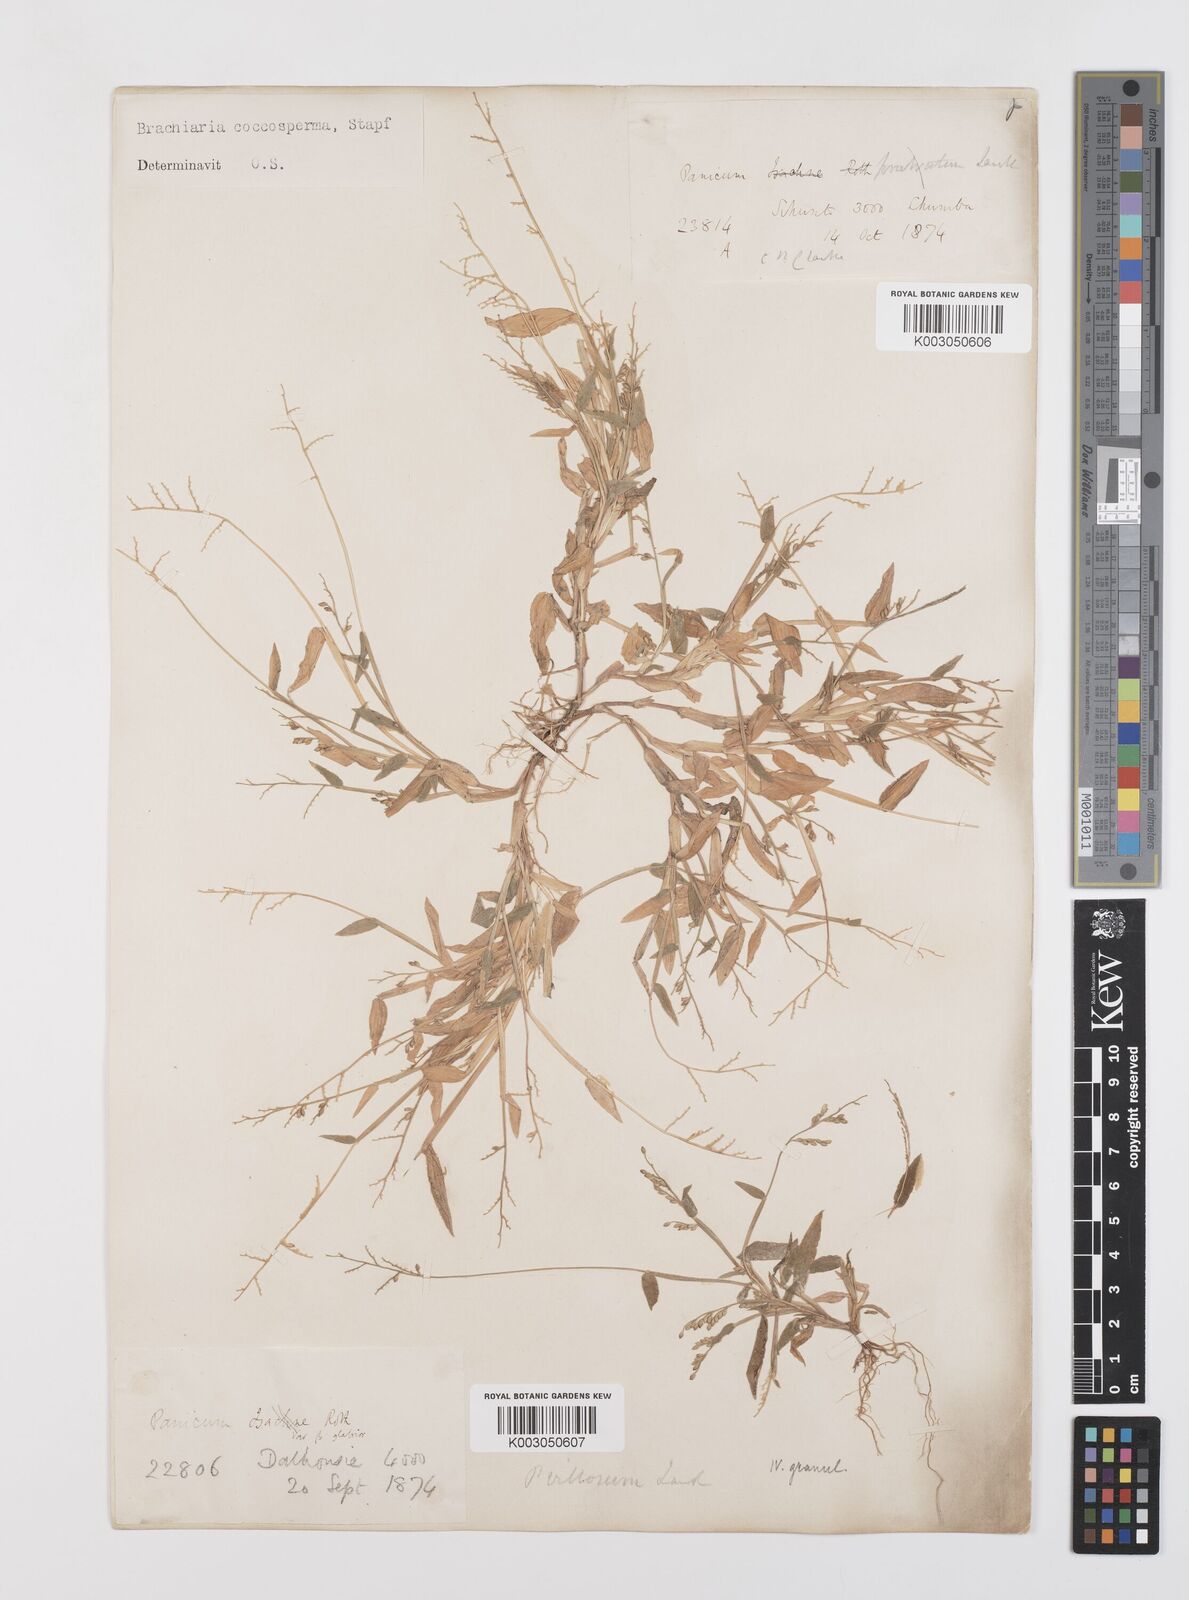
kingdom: Plantae
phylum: Tracheophyta
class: Liliopsida
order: Poales
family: Poaceae
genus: Urochloa
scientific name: Urochloa villosa
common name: Hairy signalgrass
